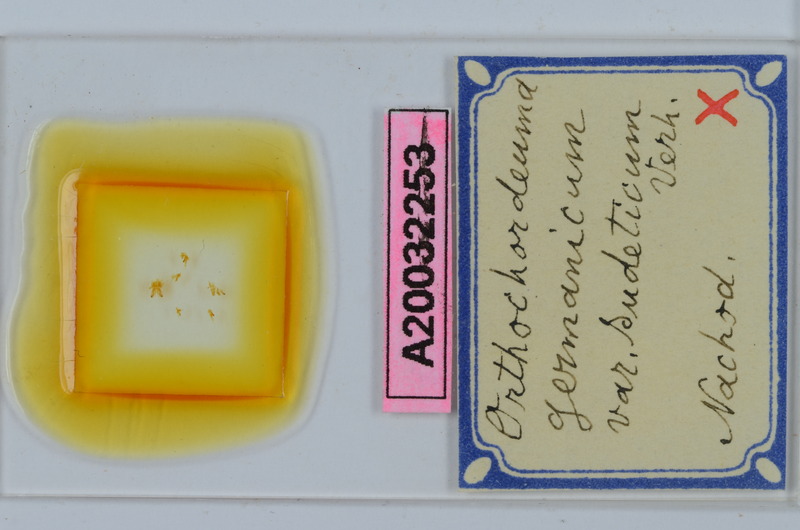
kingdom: Animalia
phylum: Arthropoda
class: Diplopoda
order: Chordeumatida
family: Chordeumatidae
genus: Mycogona
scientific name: Mycogona germanica
